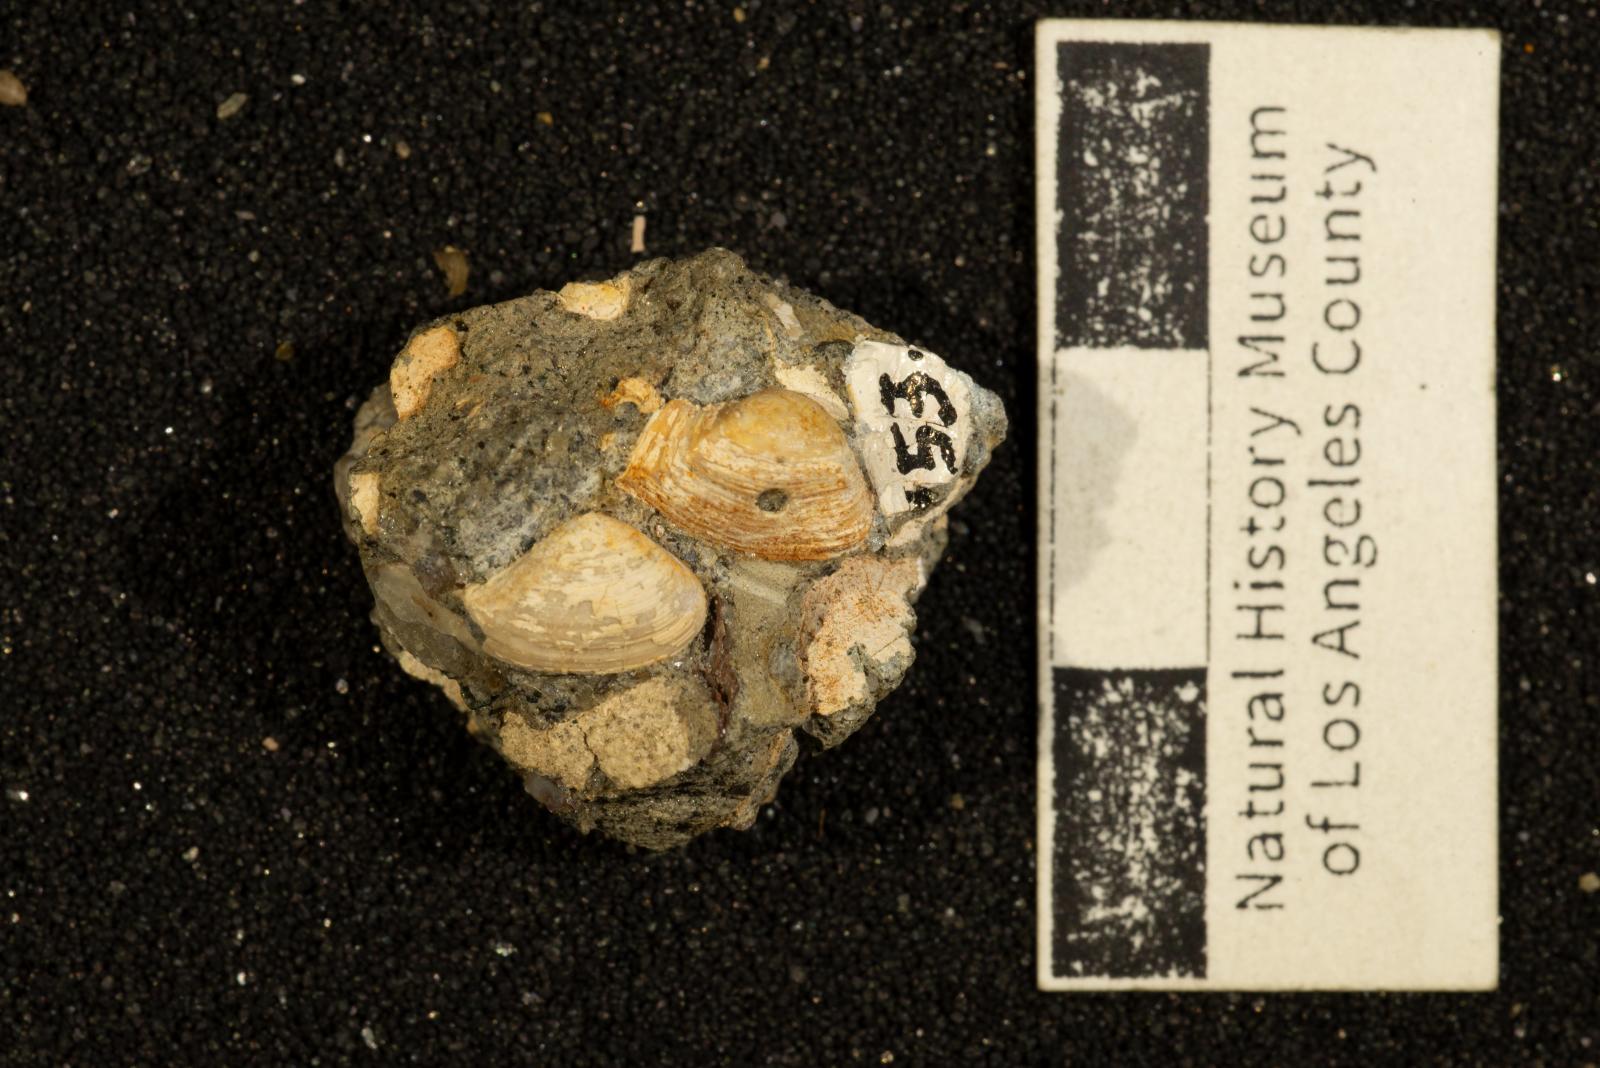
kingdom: Animalia
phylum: Mollusca
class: Bivalvia
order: Myida
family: Corbulidae
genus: Caryocorbula
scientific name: Caryocorbula lomana
